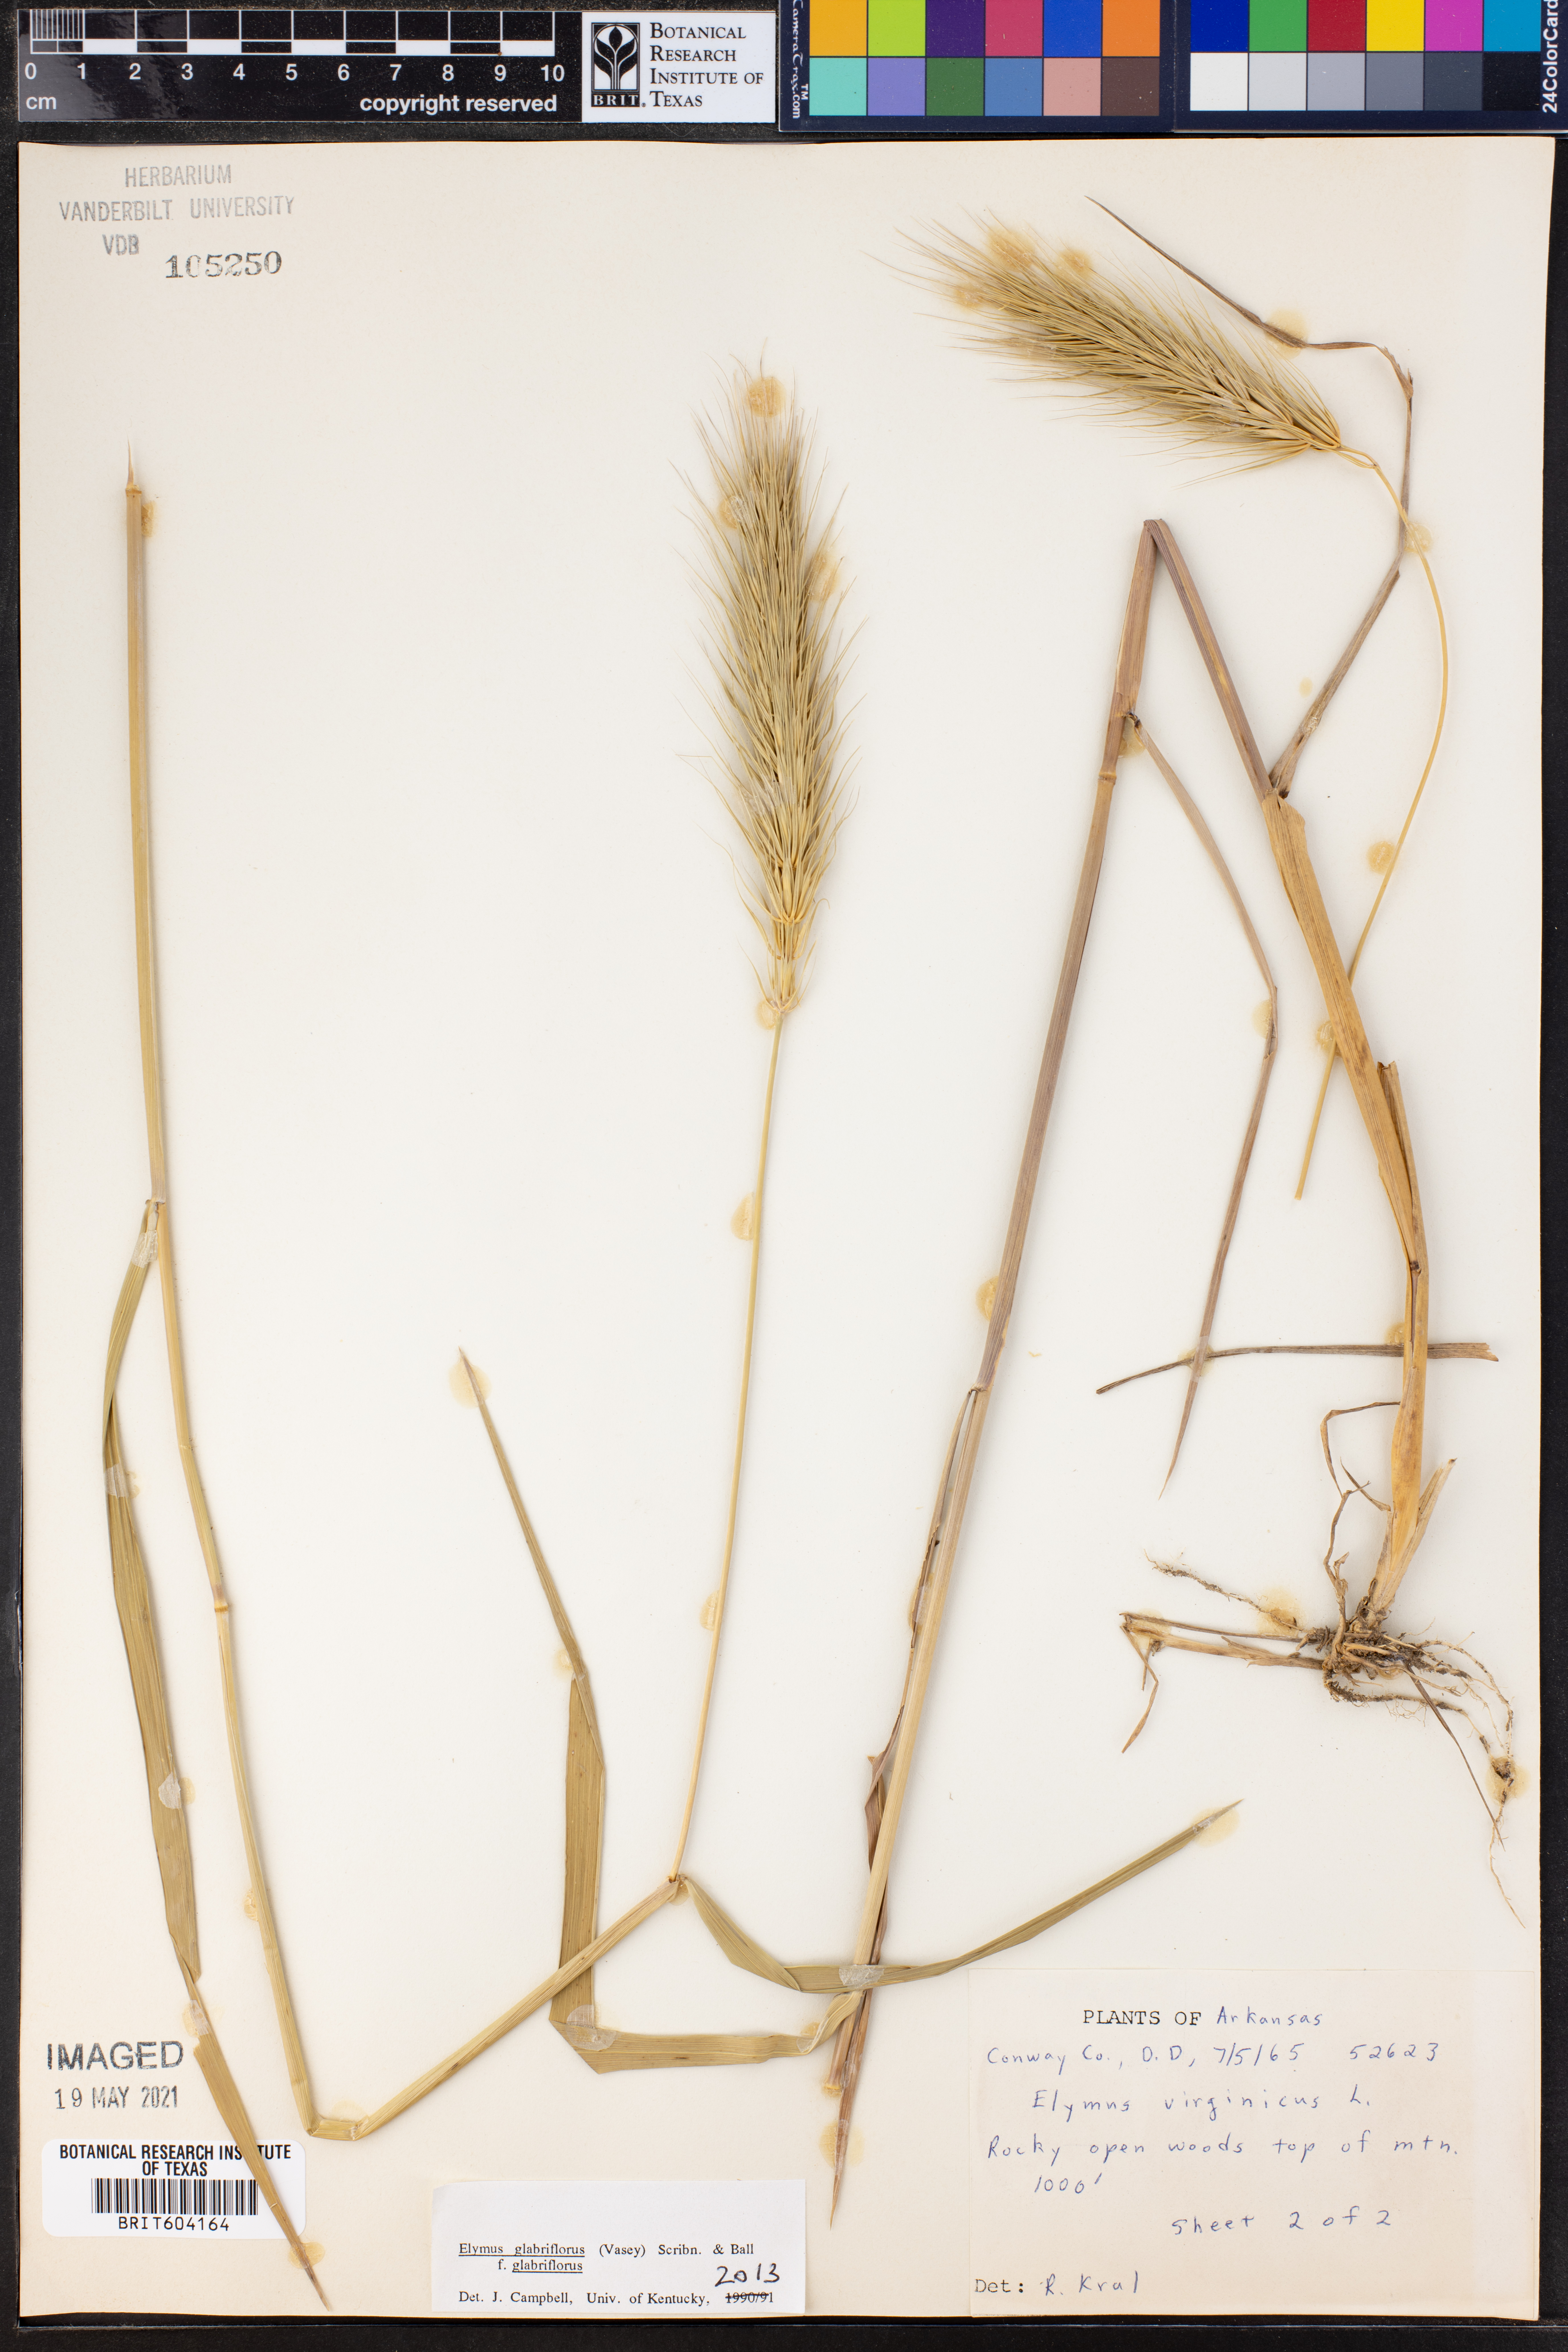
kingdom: Plantae
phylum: Tracheophyta
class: Liliopsida
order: Poales
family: Poaceae
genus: Elymus
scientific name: Elymus virginicus
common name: Common eastern wildrye
